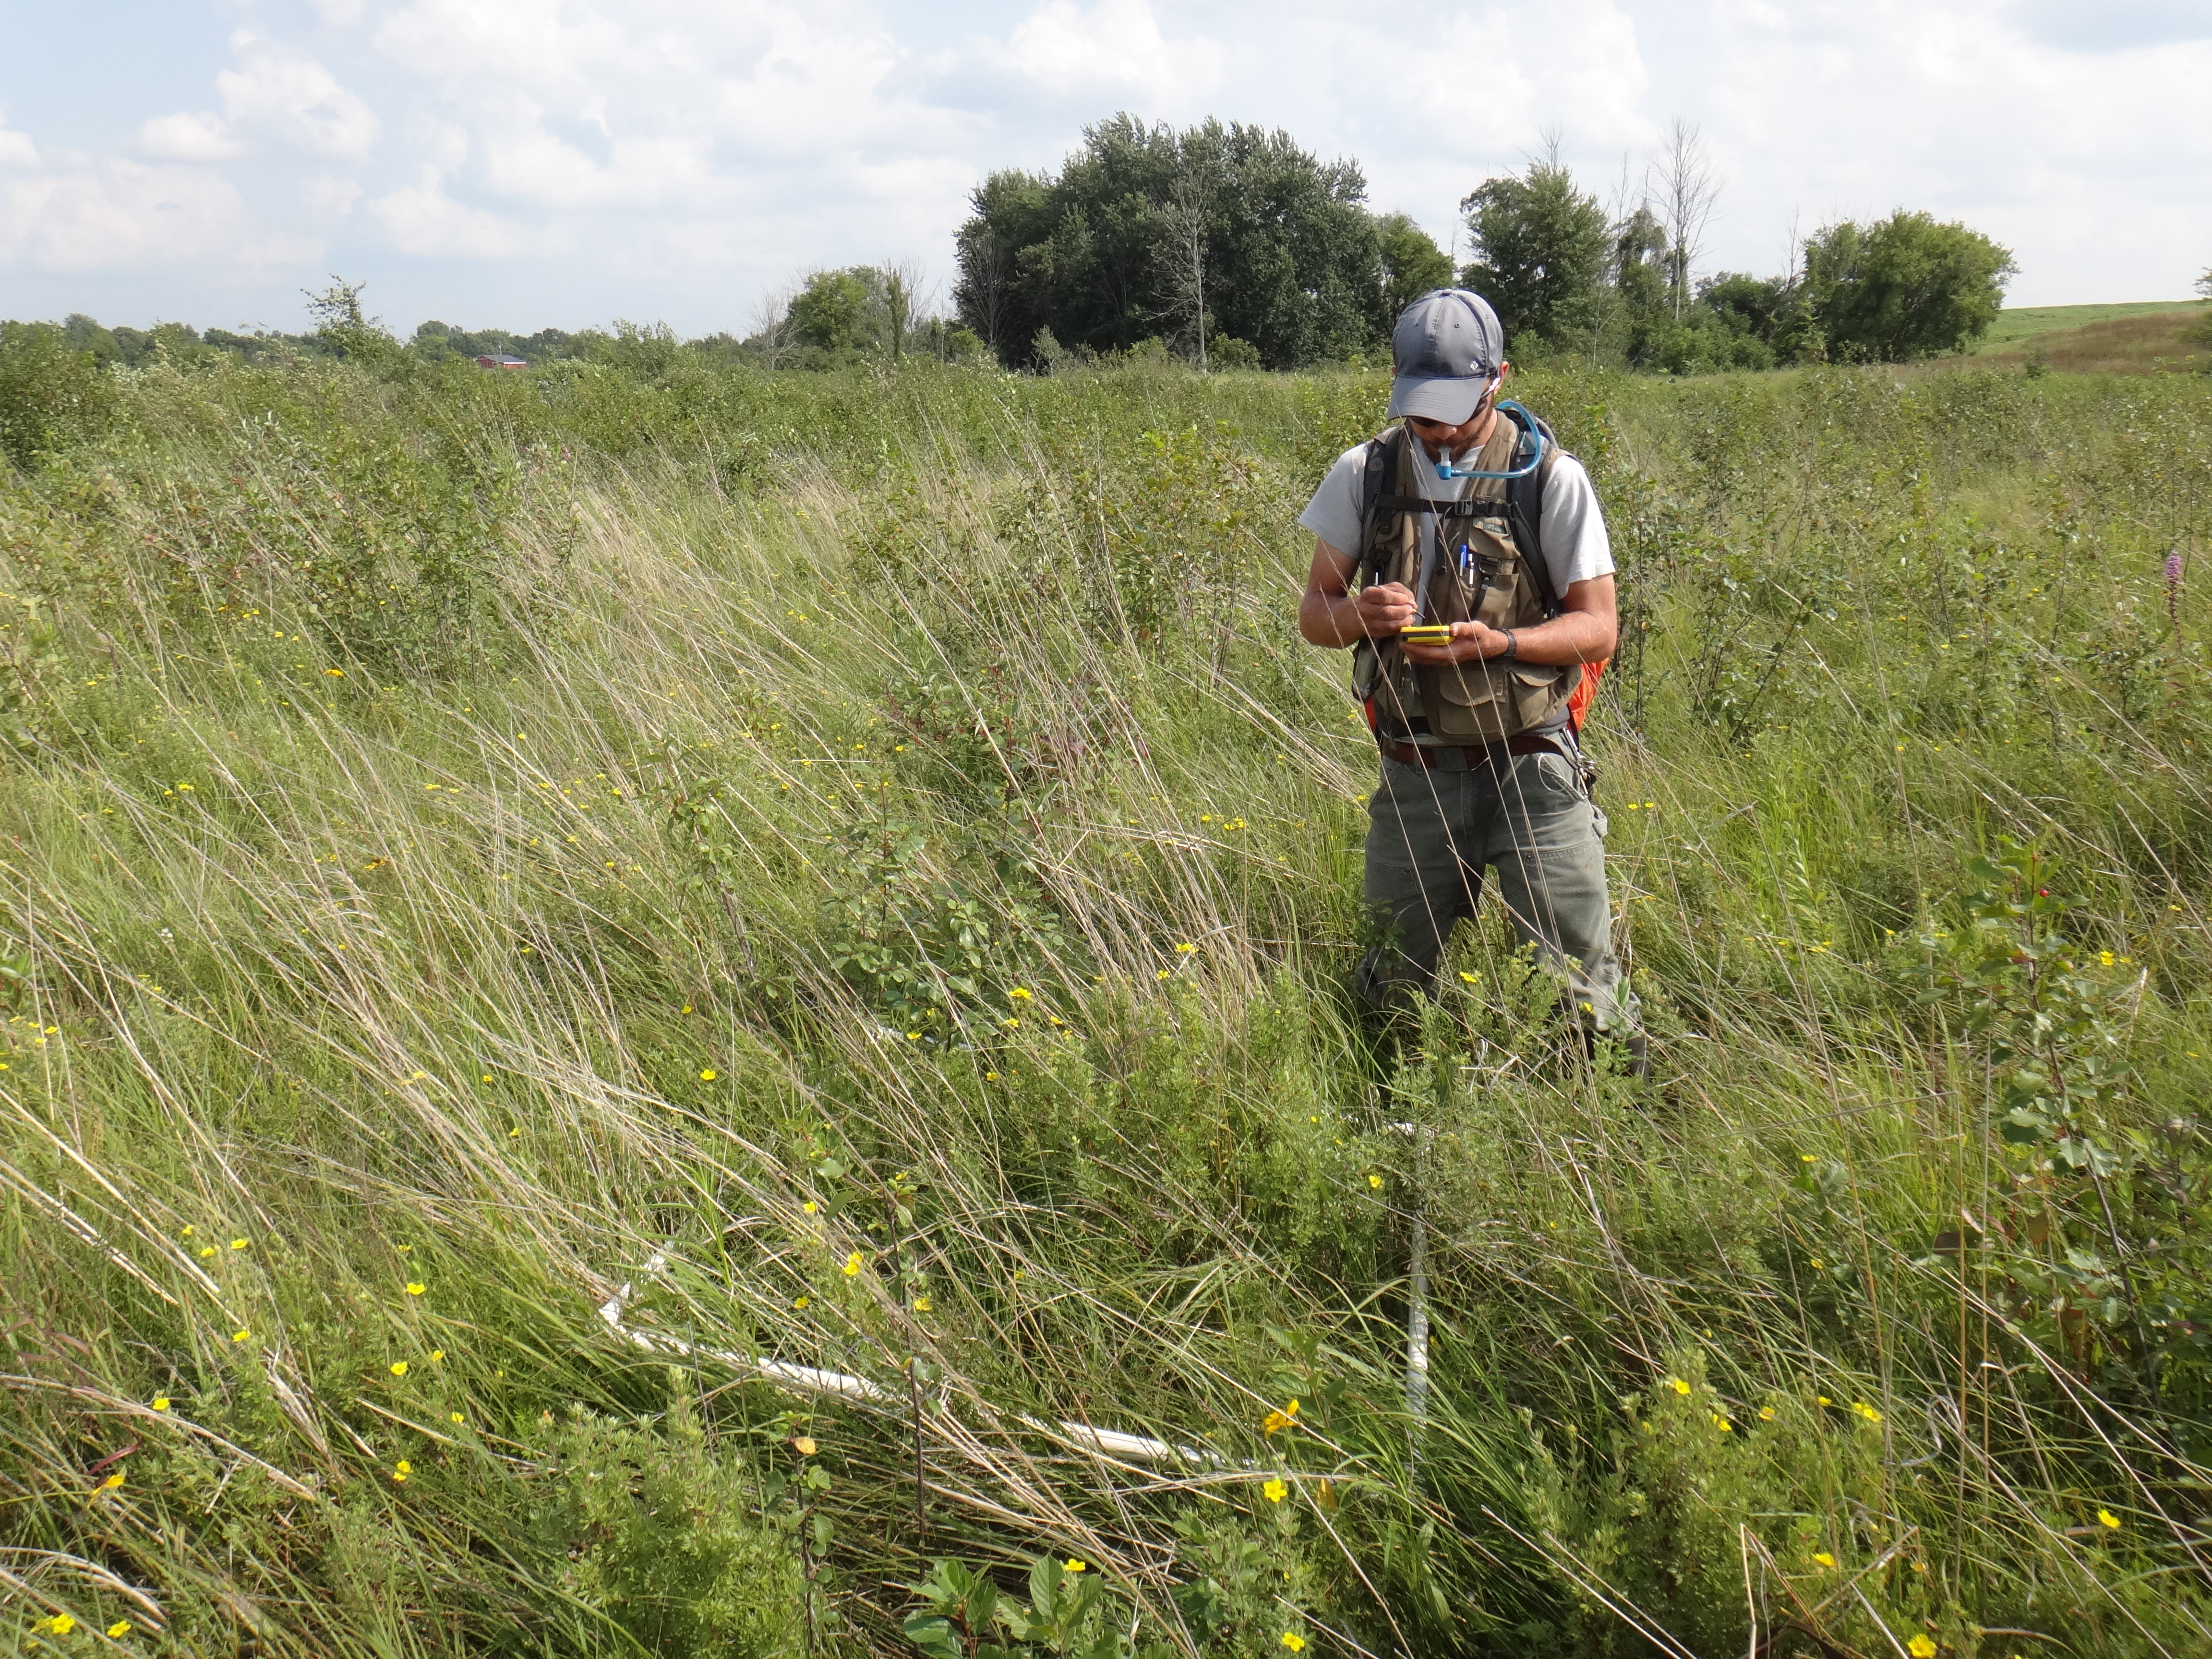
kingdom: Plantae
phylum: Tracheophyta
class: Magnoliopsida
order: Asterales
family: Asteraceae
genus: Doellingeria
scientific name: Doellingeria umbellata
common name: Flat-top white aster
